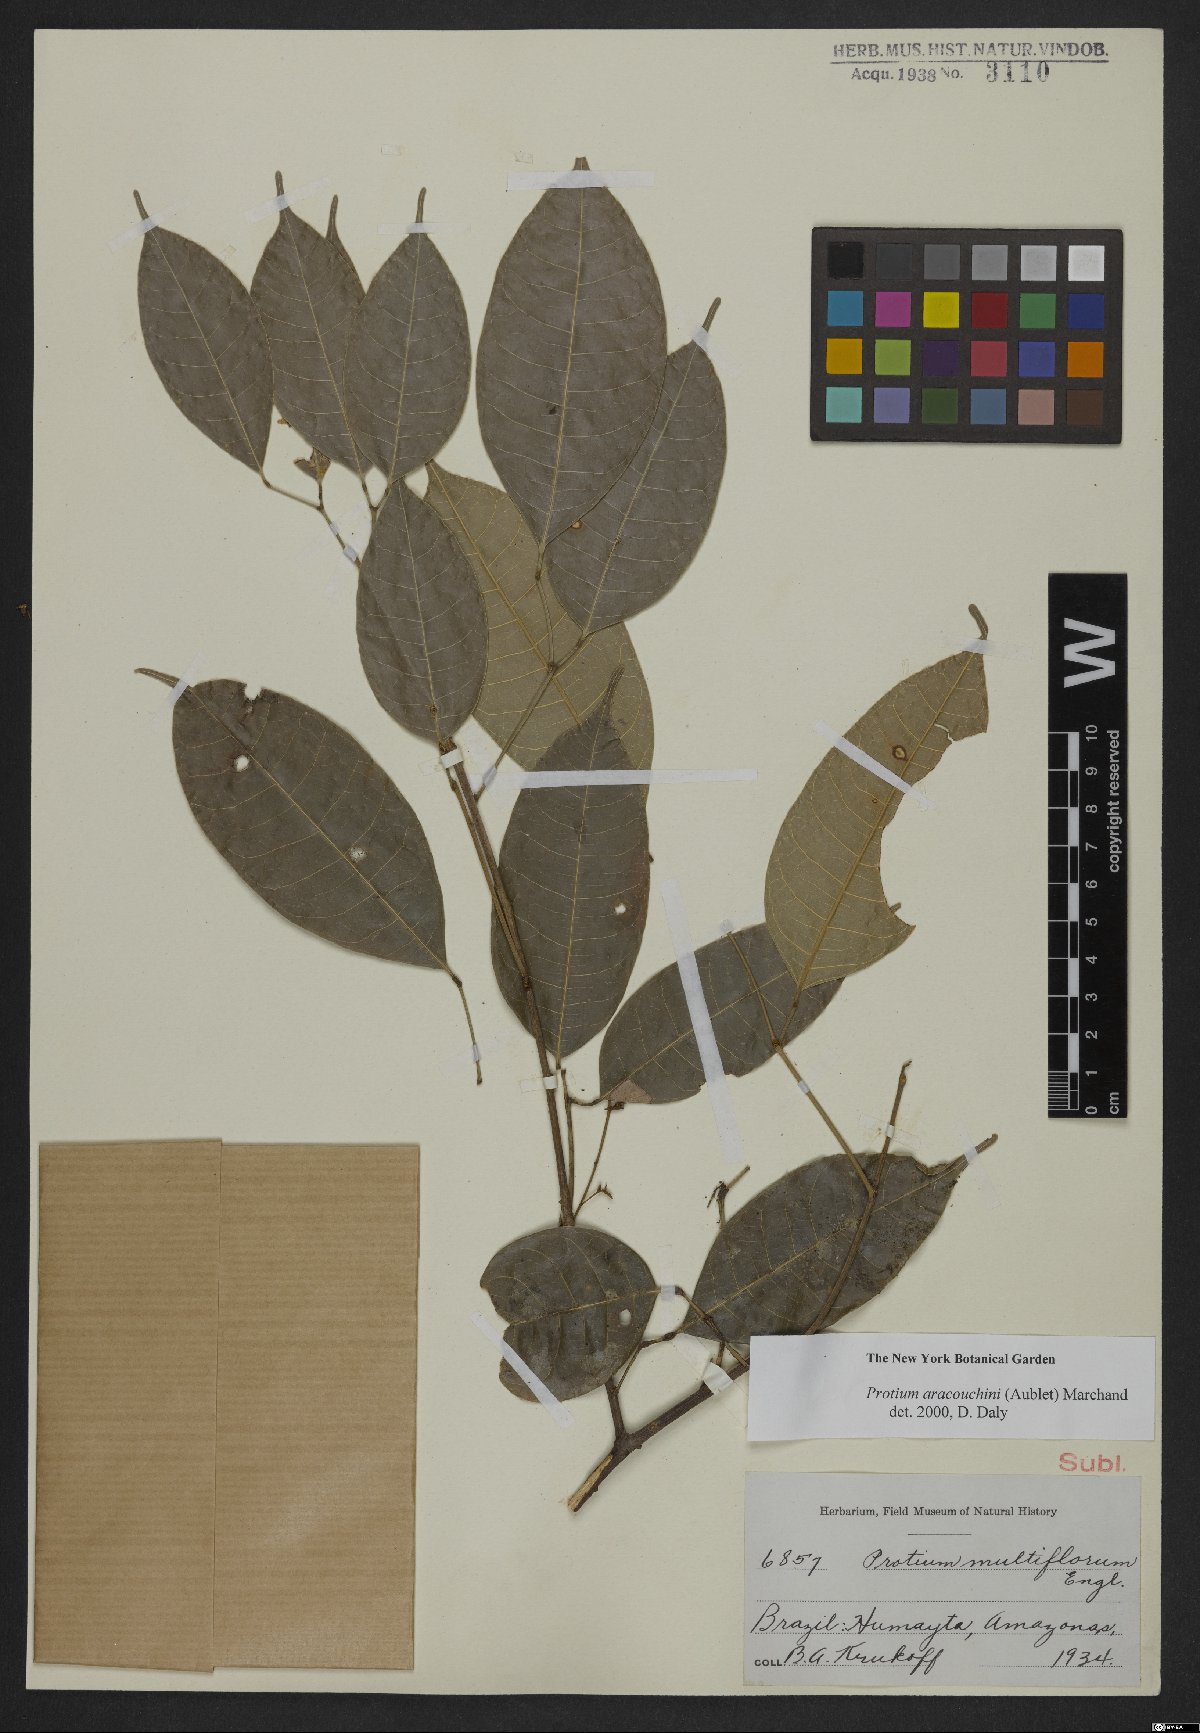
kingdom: Plantae
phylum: Tracheophyta
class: Magnoliopsida
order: Sapindales
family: Burseraceae
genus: Protium
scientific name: Protium calanense
